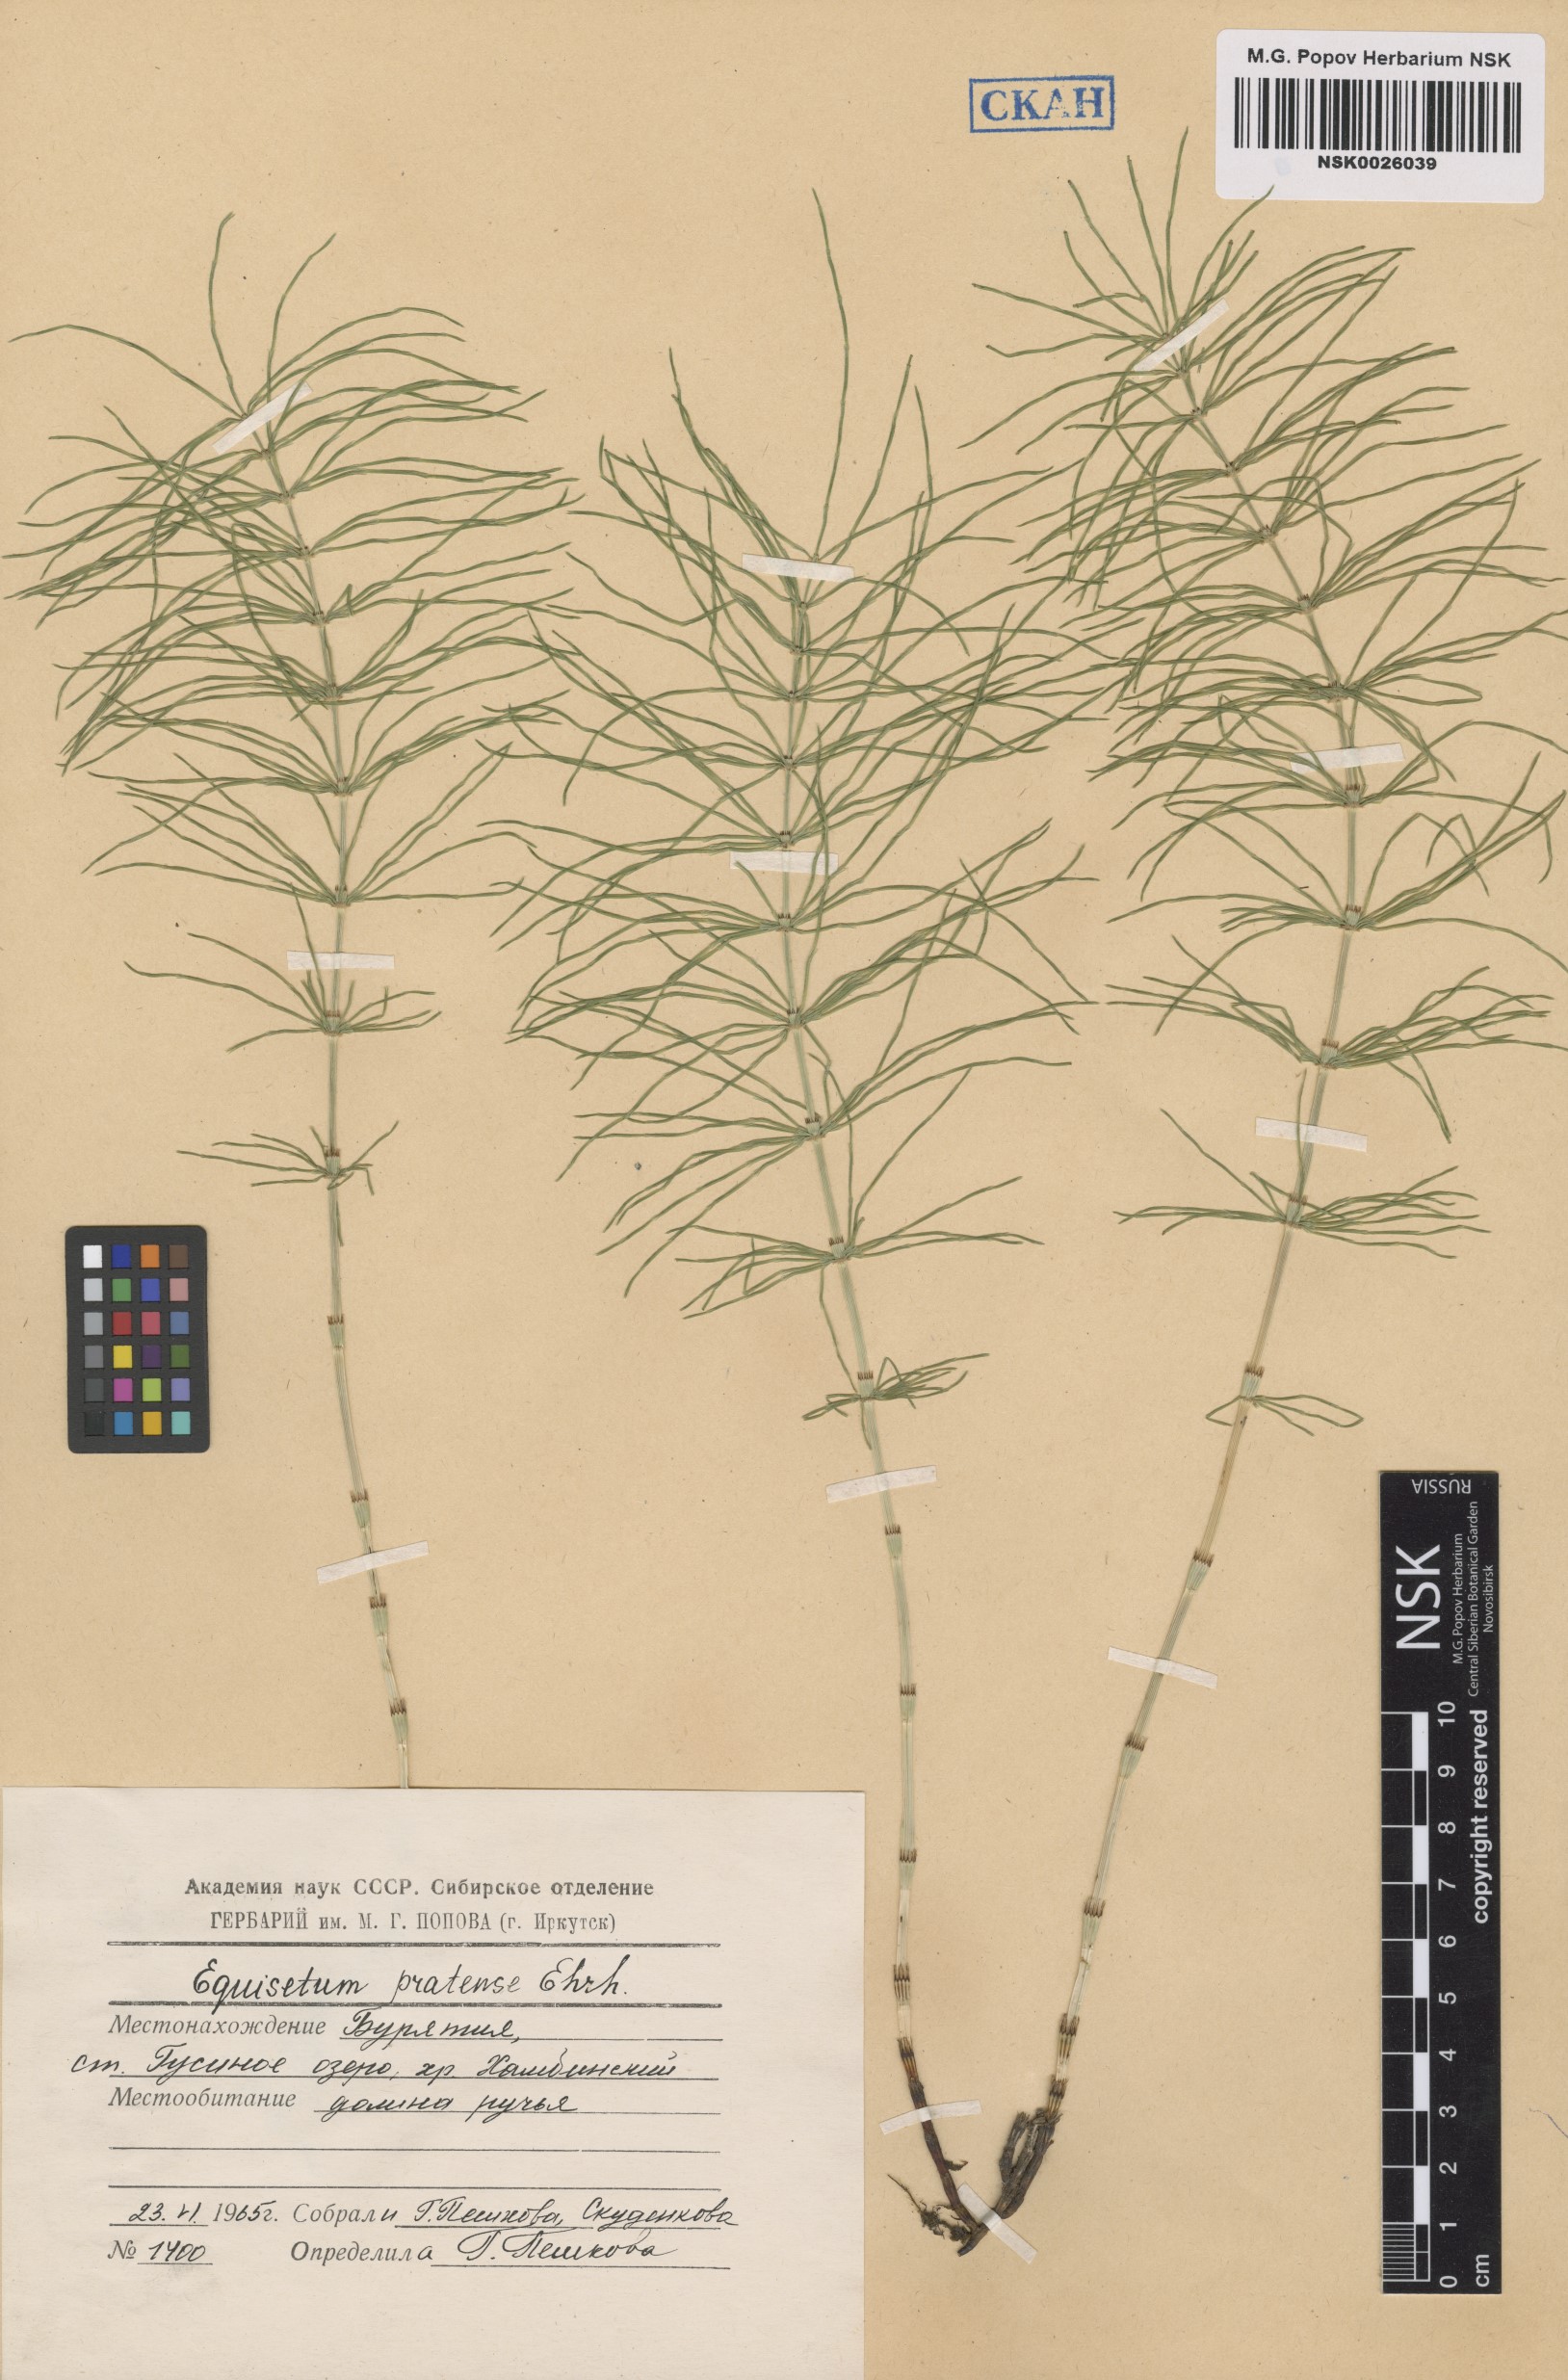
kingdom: Plantae
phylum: Tracheophyta
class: Polypodiopsida
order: Equisetales
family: Equisetaceae
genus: Equisetum
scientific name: Equisetum pratense
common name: Meadow horsetail
